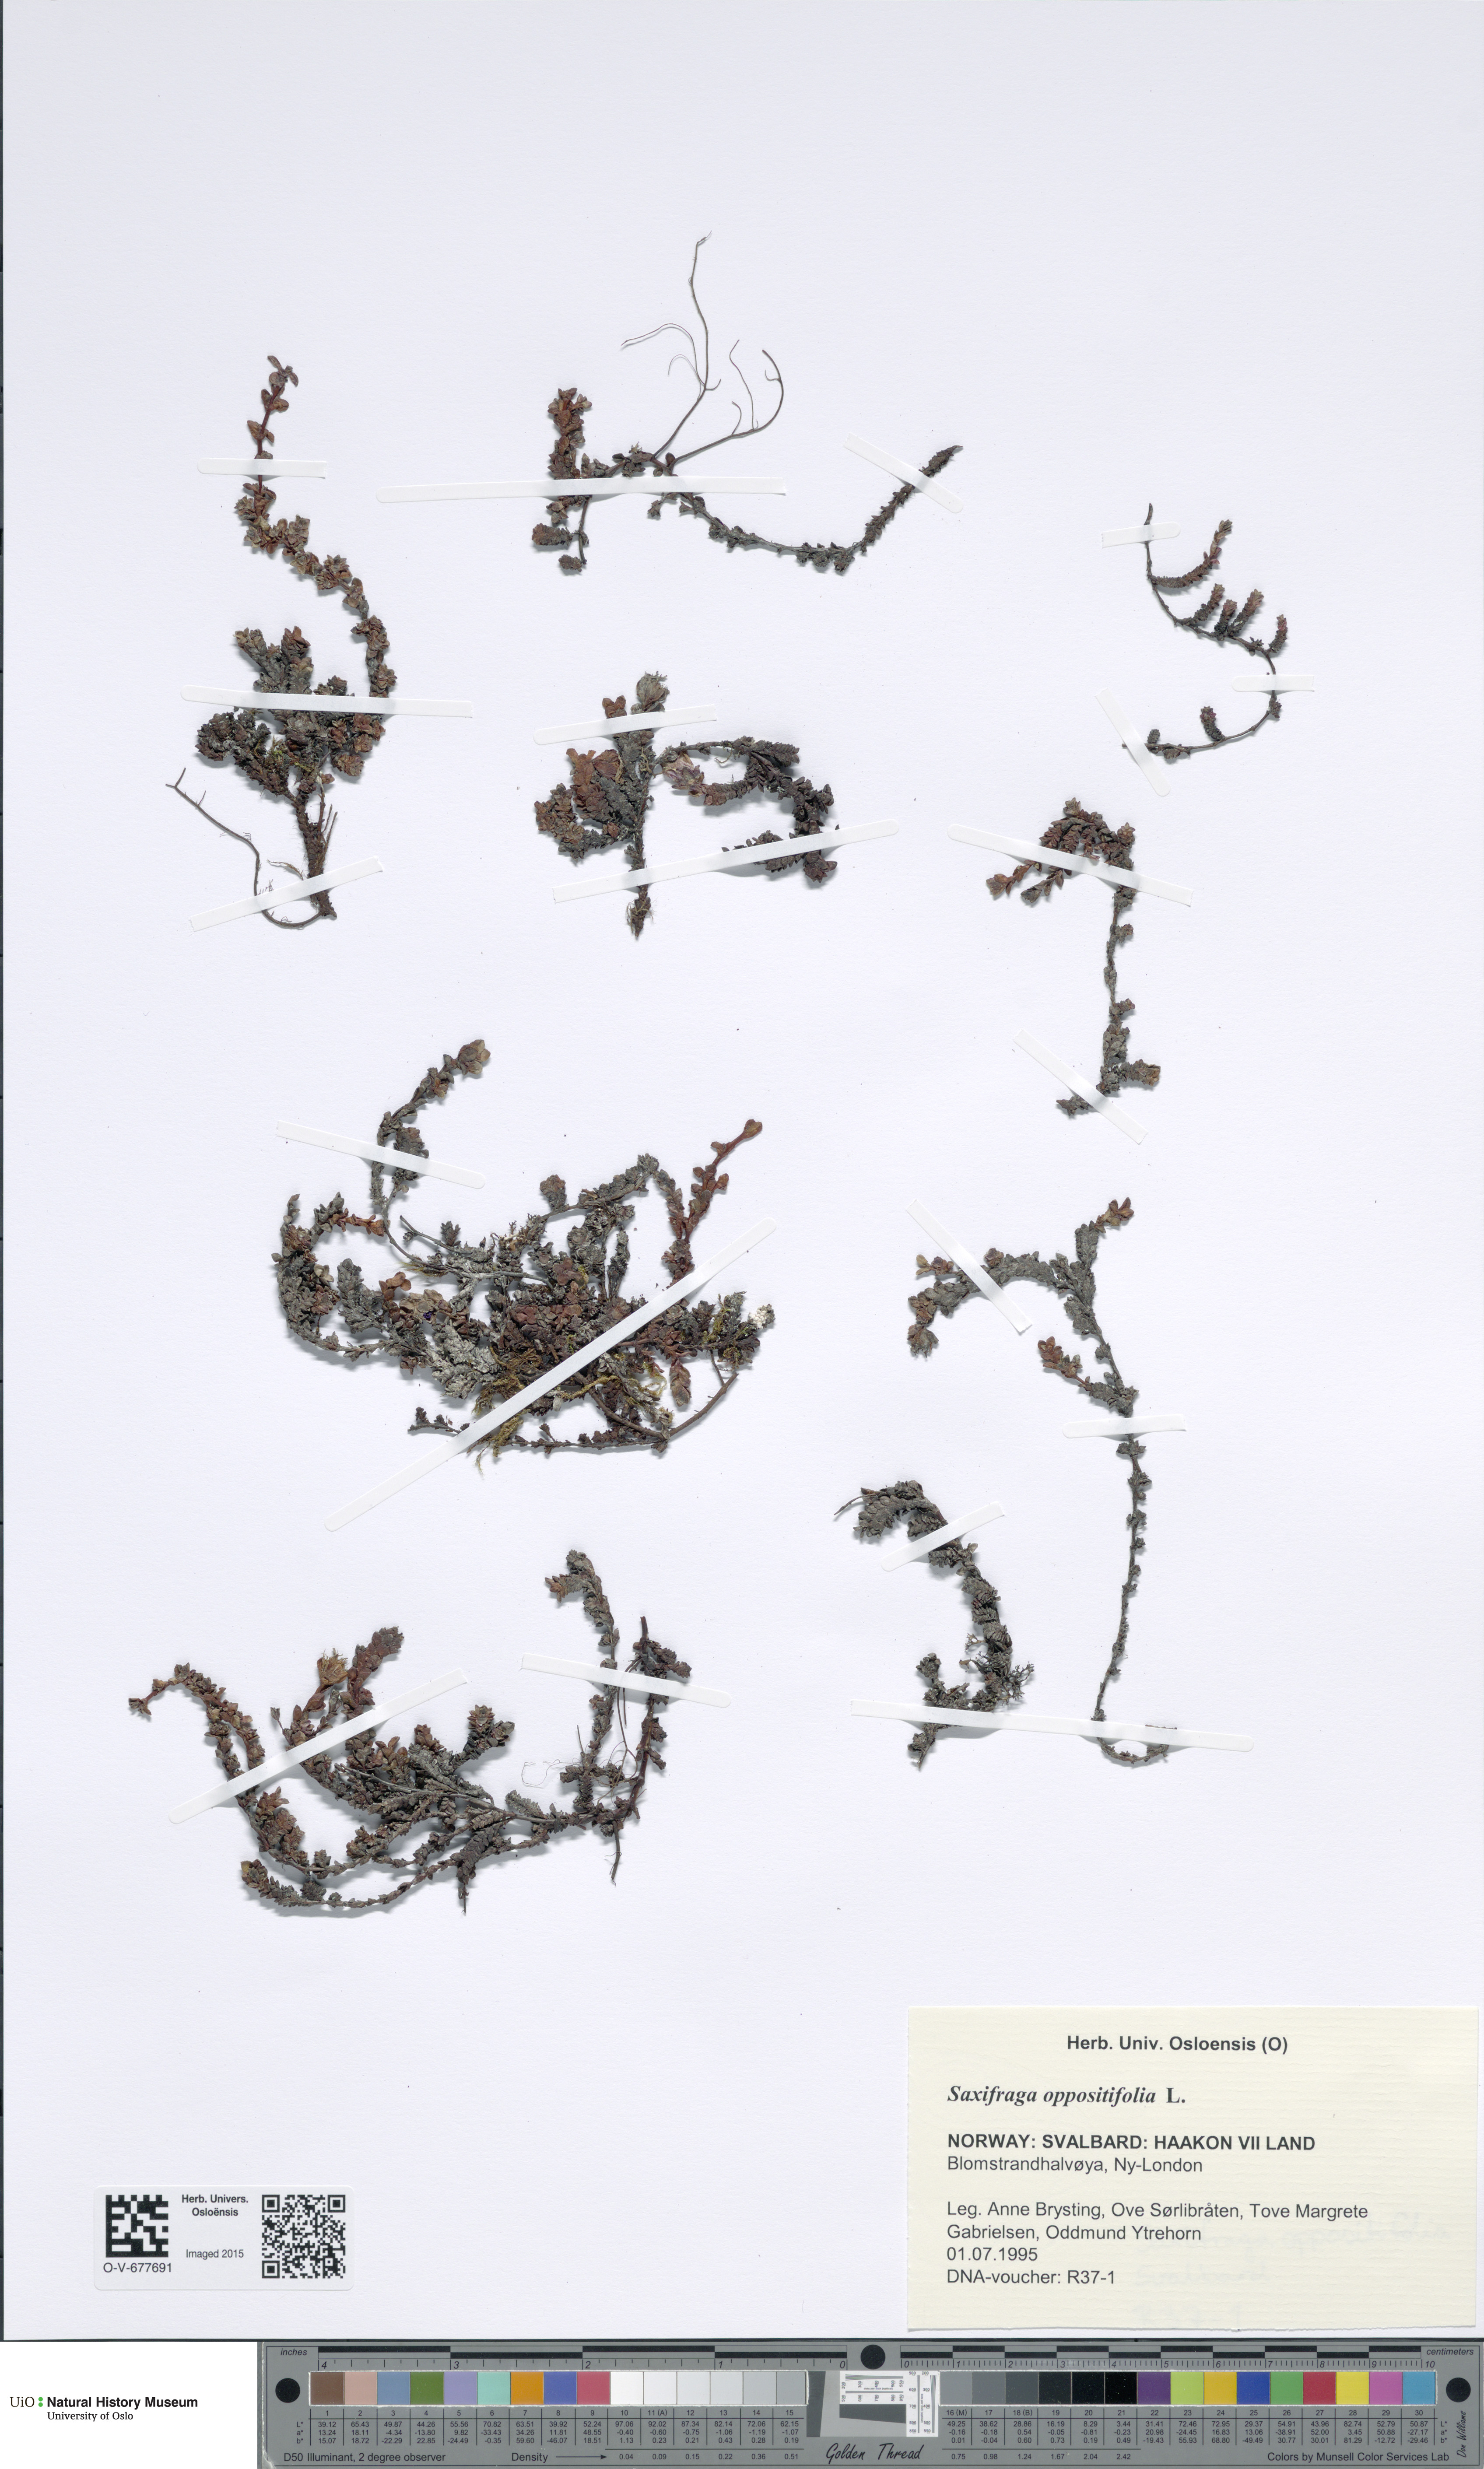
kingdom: Plantae
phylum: Tracheophyta
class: Magnoliopsida
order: Saxifragales
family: Saxifragaceae
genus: Saxifraga
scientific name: Saxifraga oppositifolia
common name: Purple saxifrage
